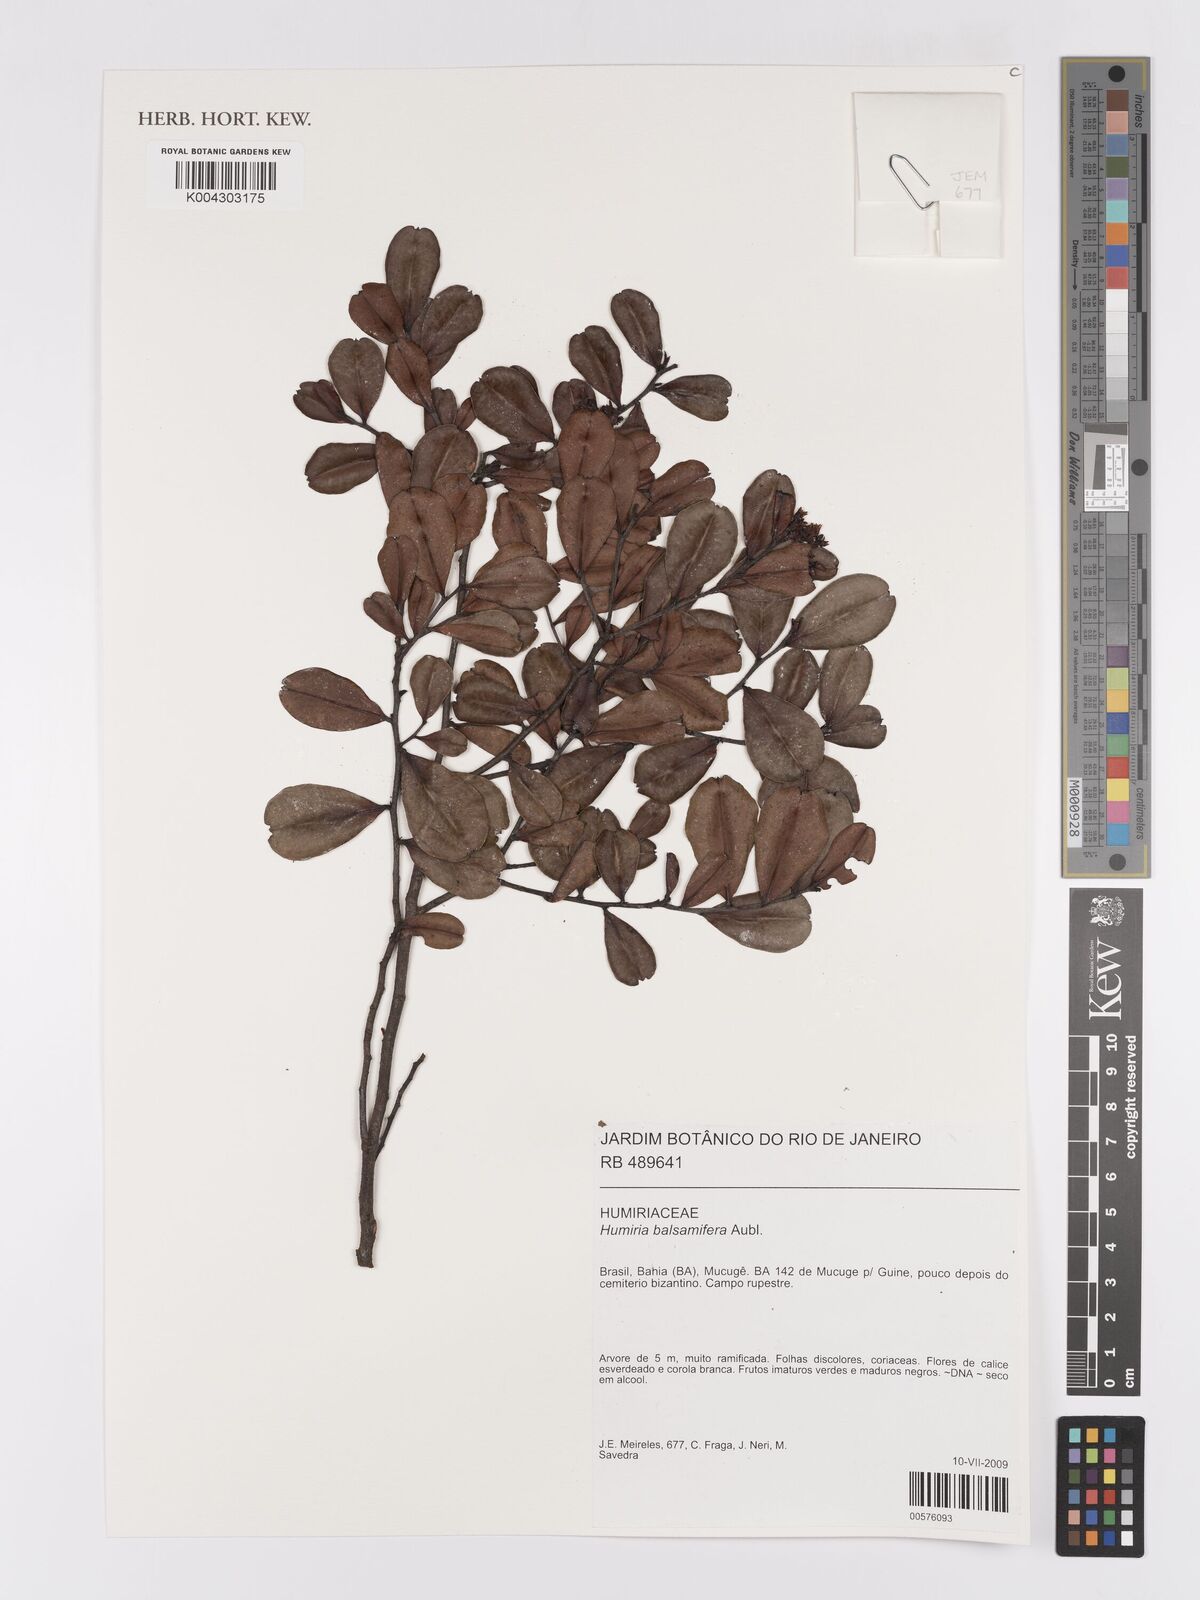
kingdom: Plantae
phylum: Tracheophyta
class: Magnoliopsida
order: Malpighiales
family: Humiriaceae
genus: Humiria
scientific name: Humiria parvifolia
